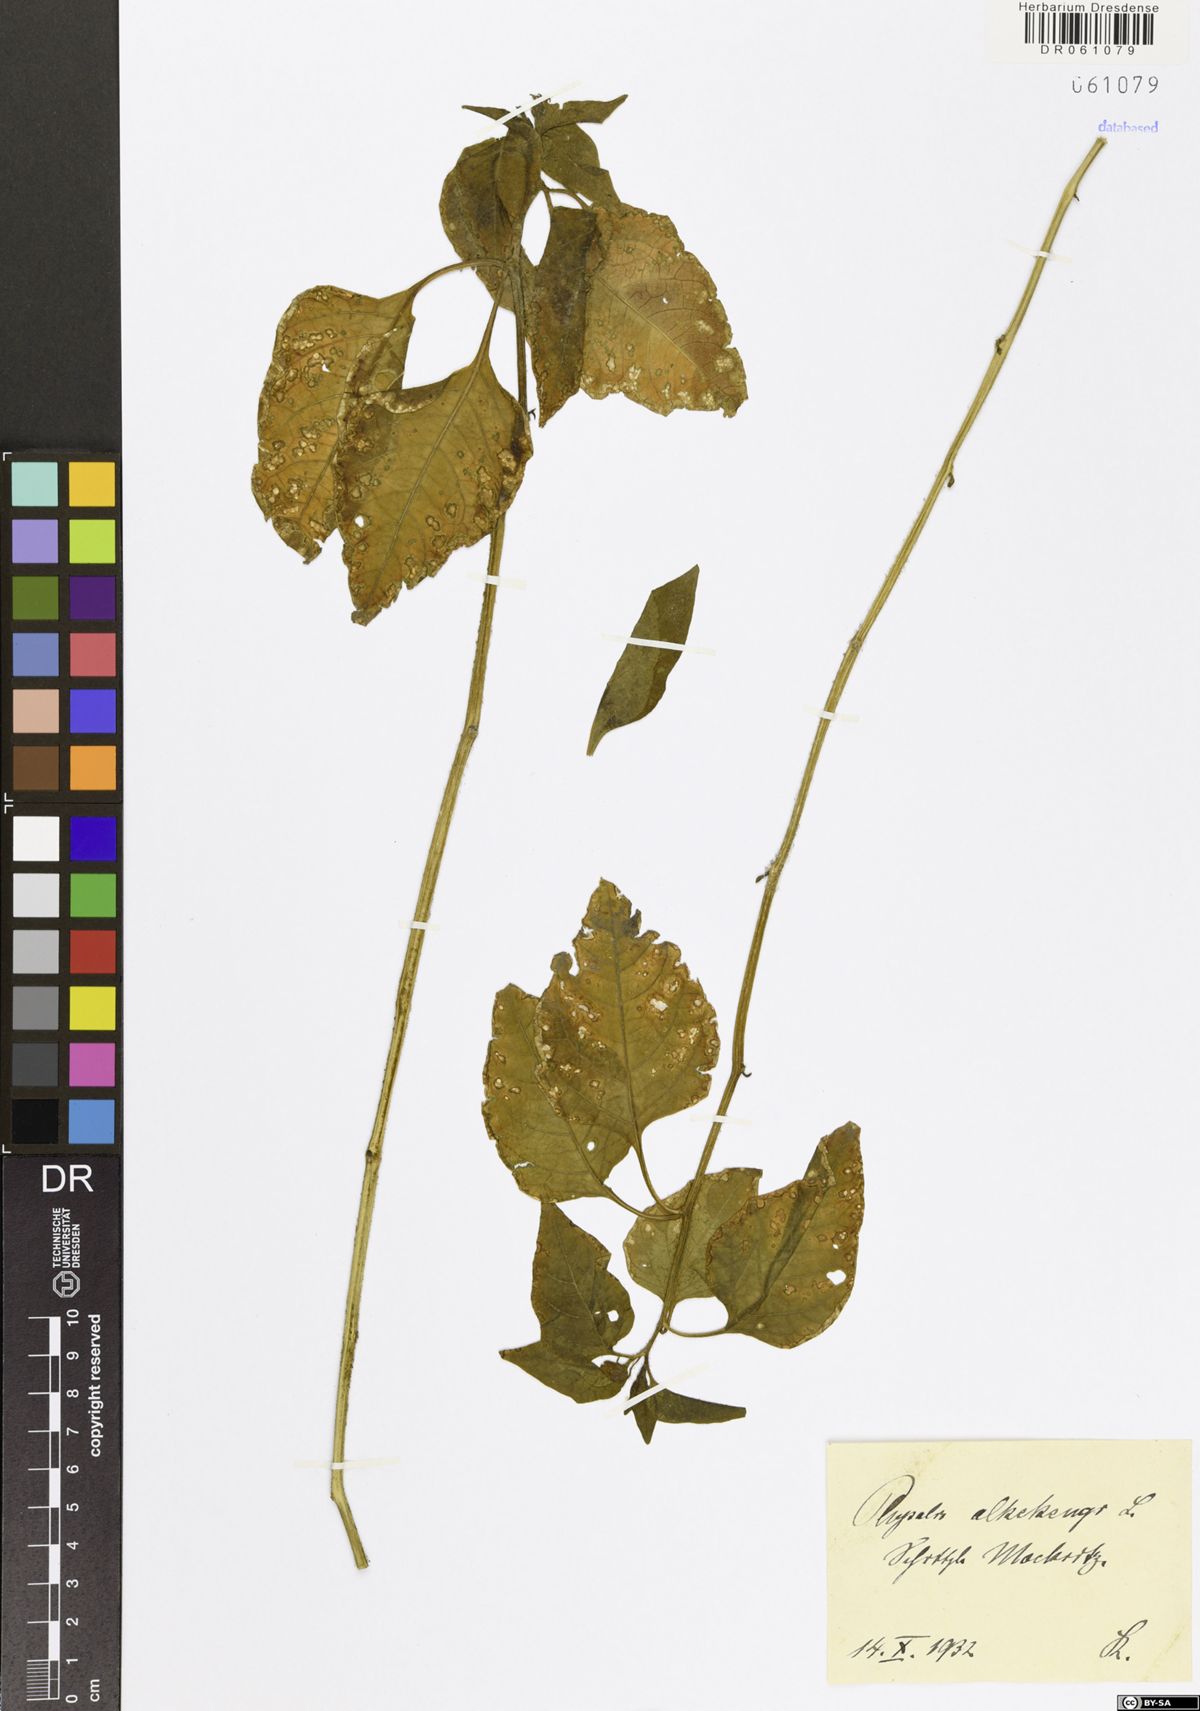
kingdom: Plantae
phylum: Tracheophyta
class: Magnoliopsida
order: Solanales
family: Solanaceae
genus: Alkekengi
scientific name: Alkekengi officinarum
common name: Japanese-lantern
